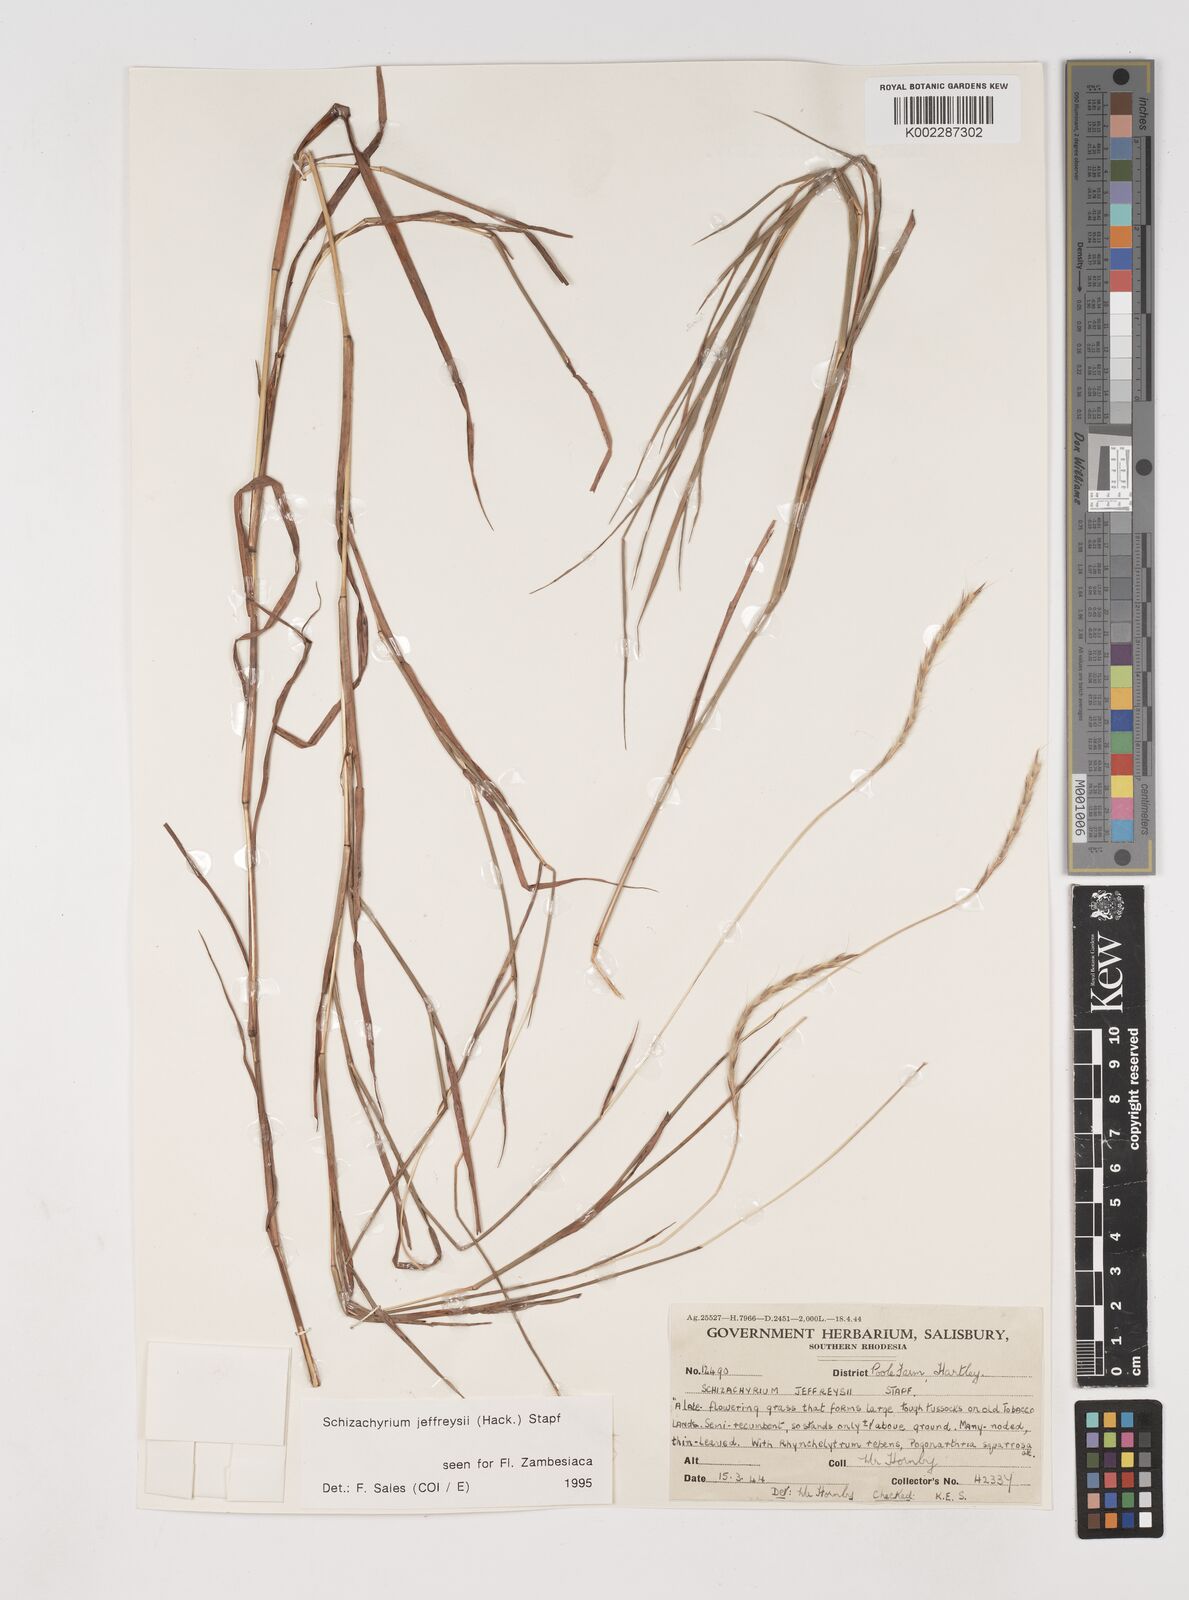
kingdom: Plantae
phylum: Tracheophyta
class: Liliopsida
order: Poales
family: Poaceae
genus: Schizachyrium
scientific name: Schizachyrium jeffreysii
